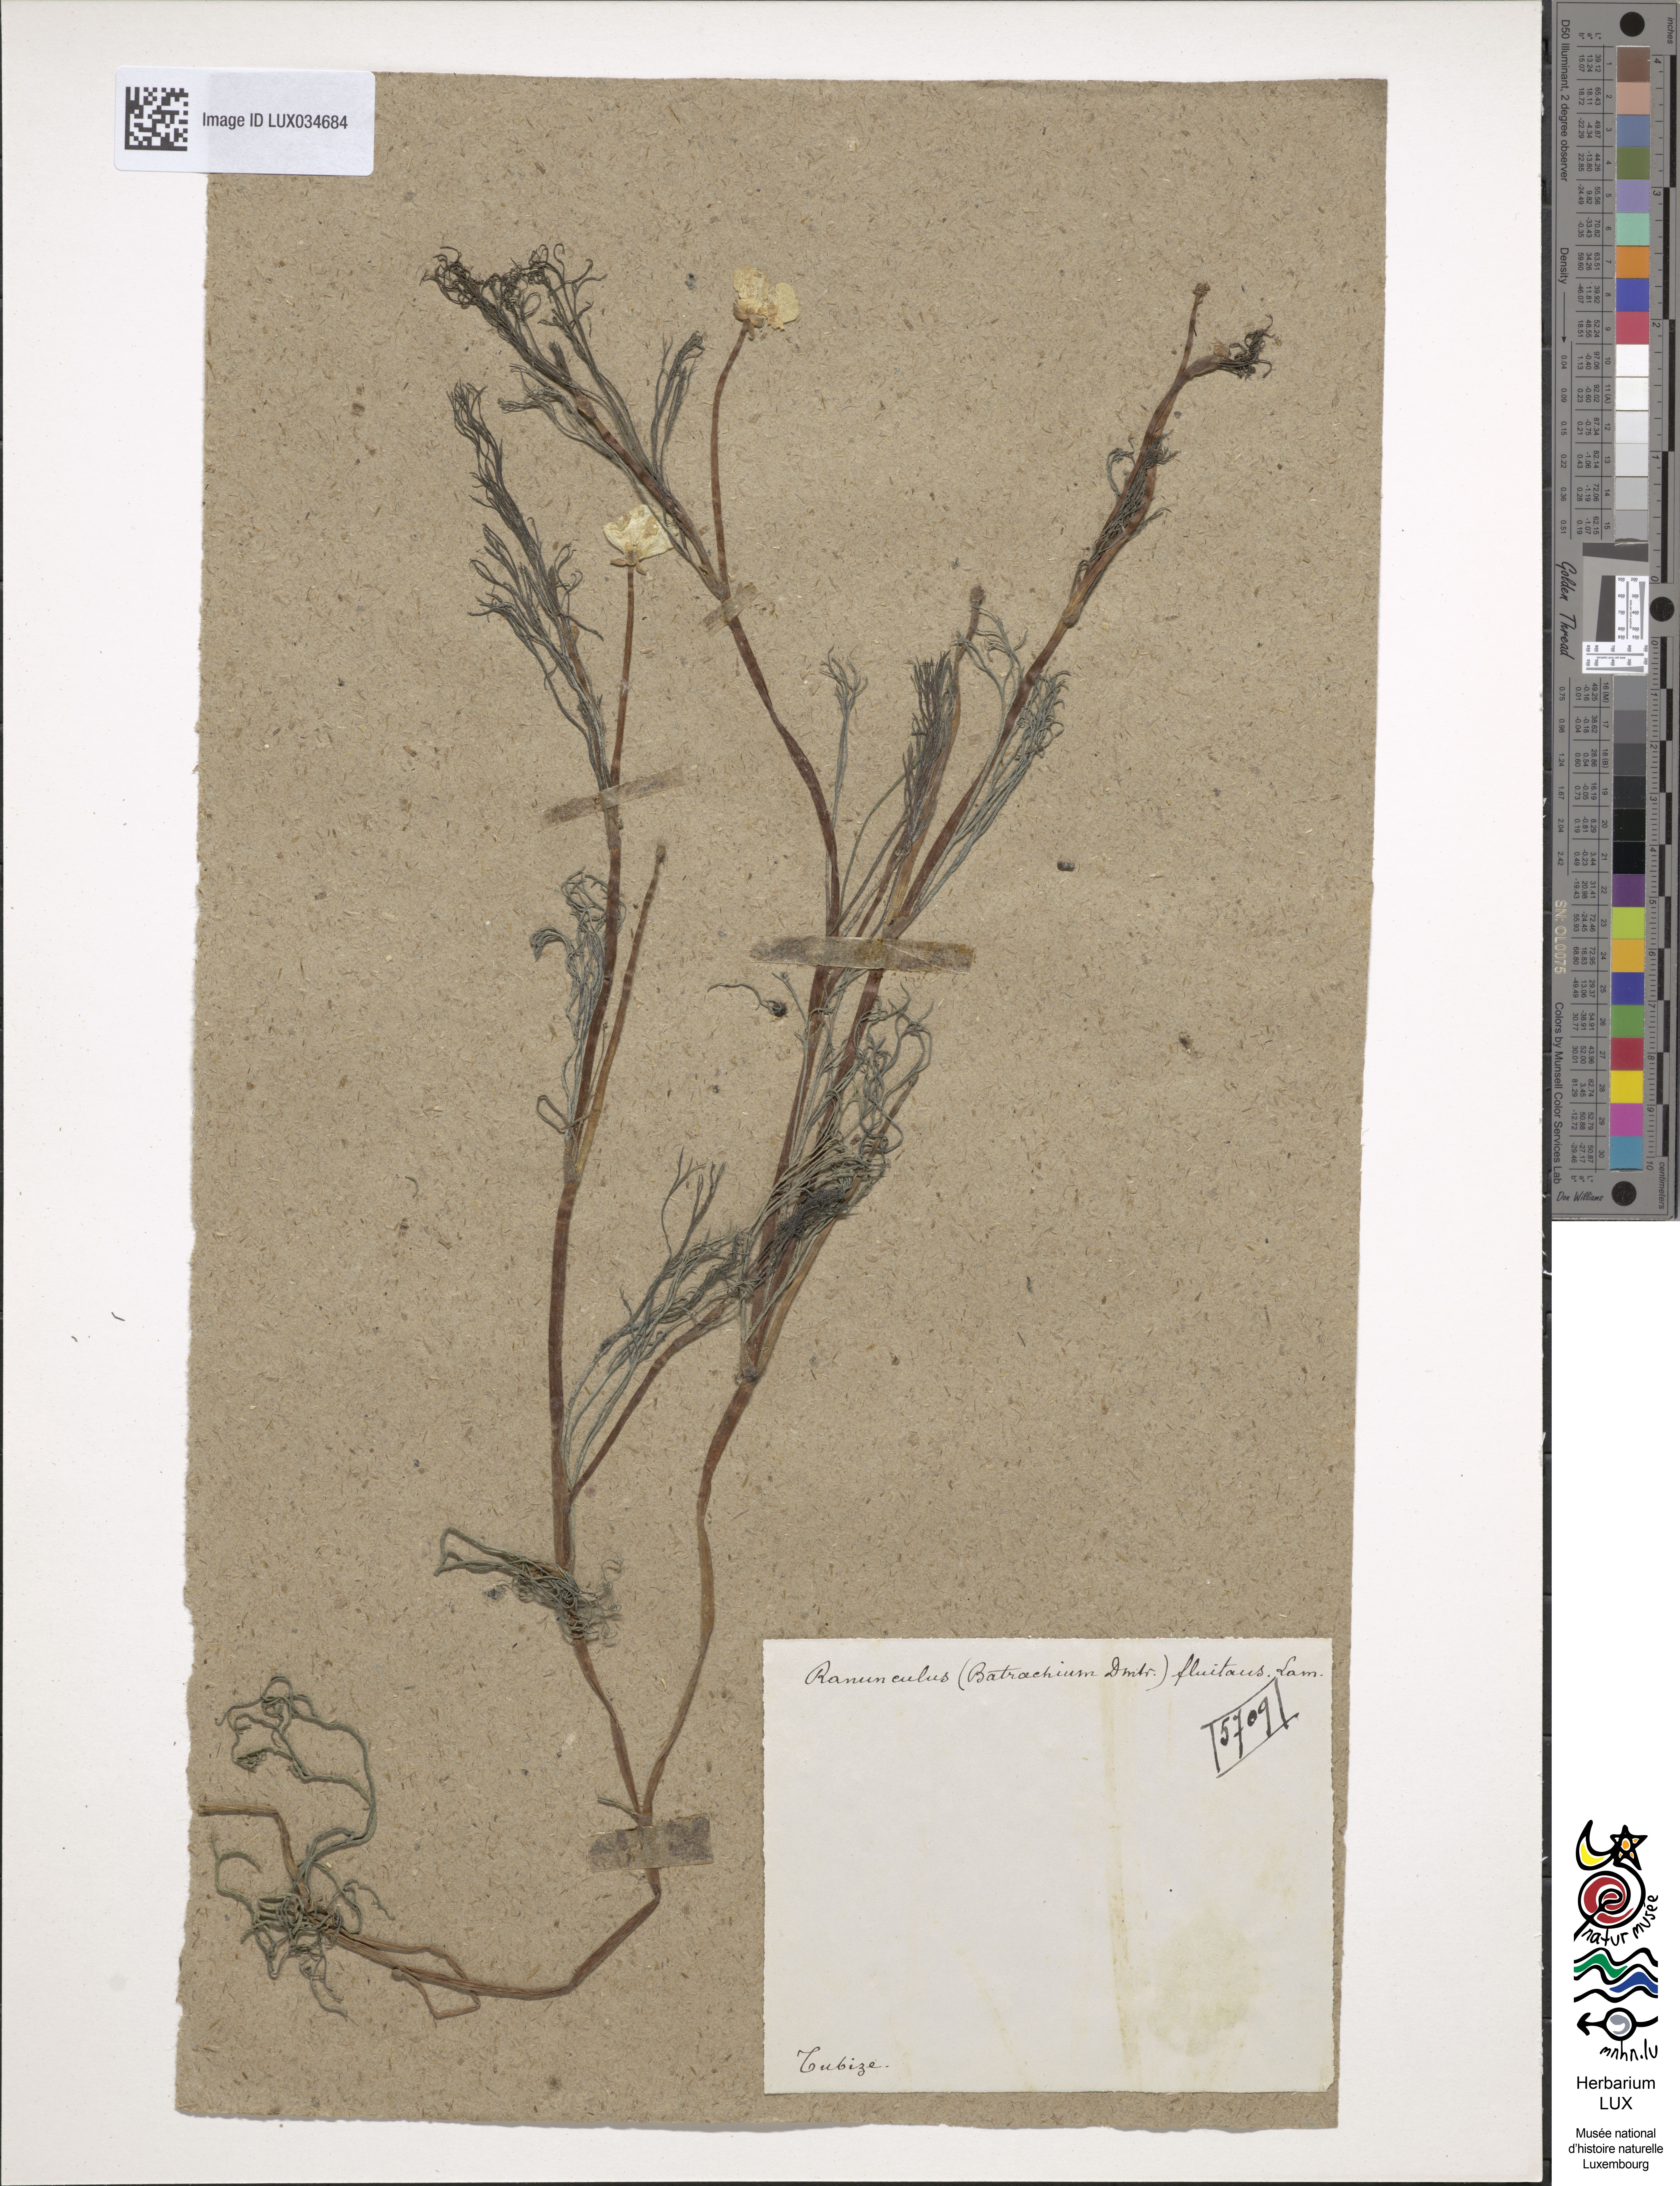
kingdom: Plantae
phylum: Tracheophyta
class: Magnoliopsida
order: Ranunculales
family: Ranunculaceae
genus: Ranunculus
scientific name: Ranunculus fluitans
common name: River water-crowfoot
